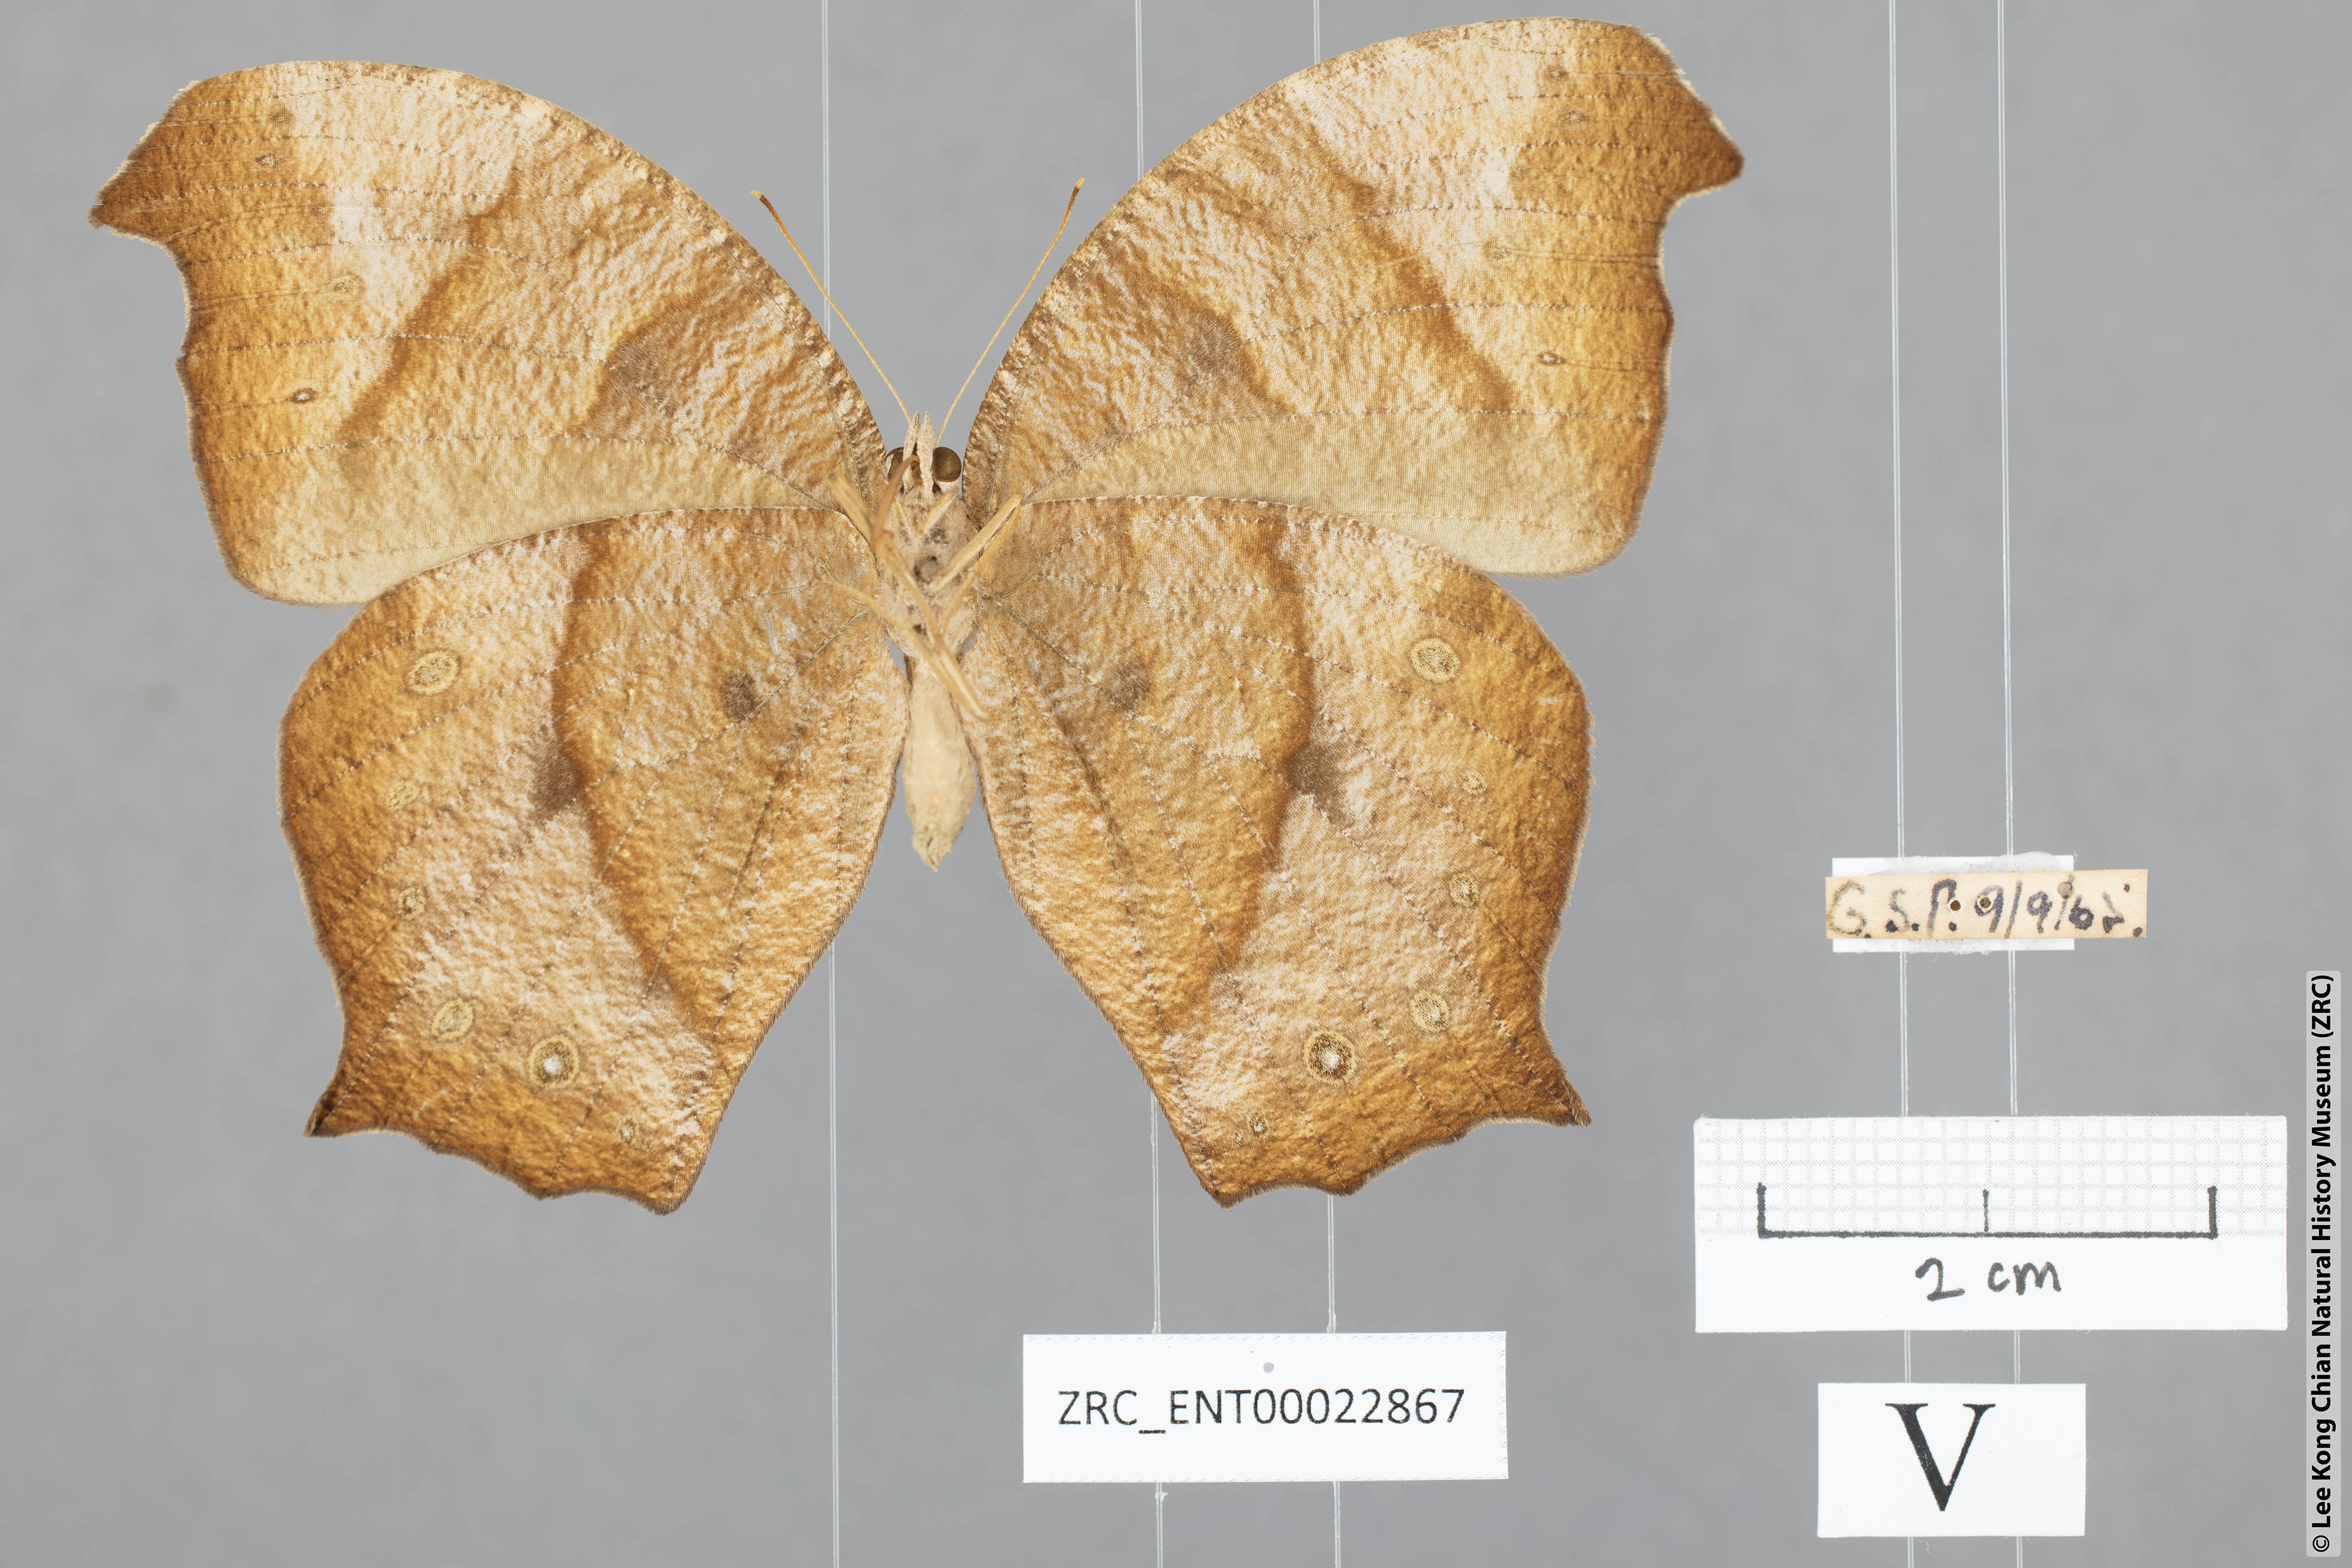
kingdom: Animalia
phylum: Arthropoda
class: Insecta
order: Lepidoptera
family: Nymphalidae
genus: Melanitis
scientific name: Melanitis phedima
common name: Dark evening brown
